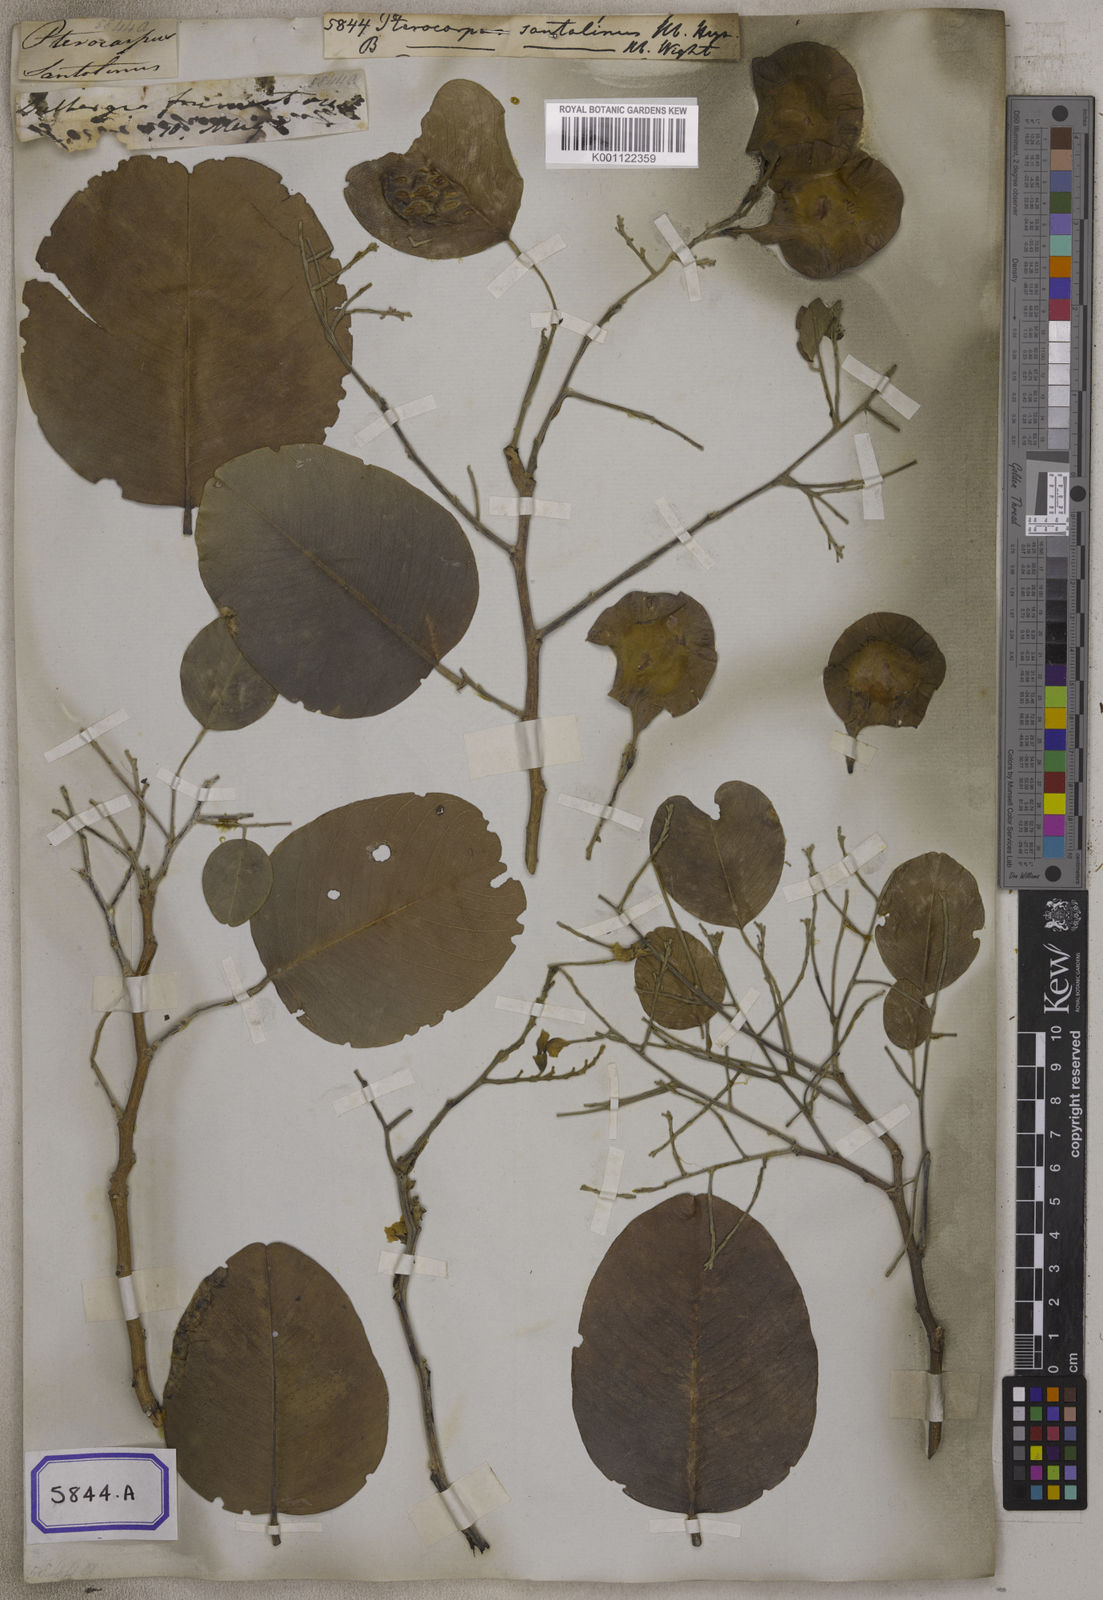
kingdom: Plantae
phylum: Tracheophyta
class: Magnoliopsida
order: Fabales
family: Fabaceae
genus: Derris
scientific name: Derris canarensis
